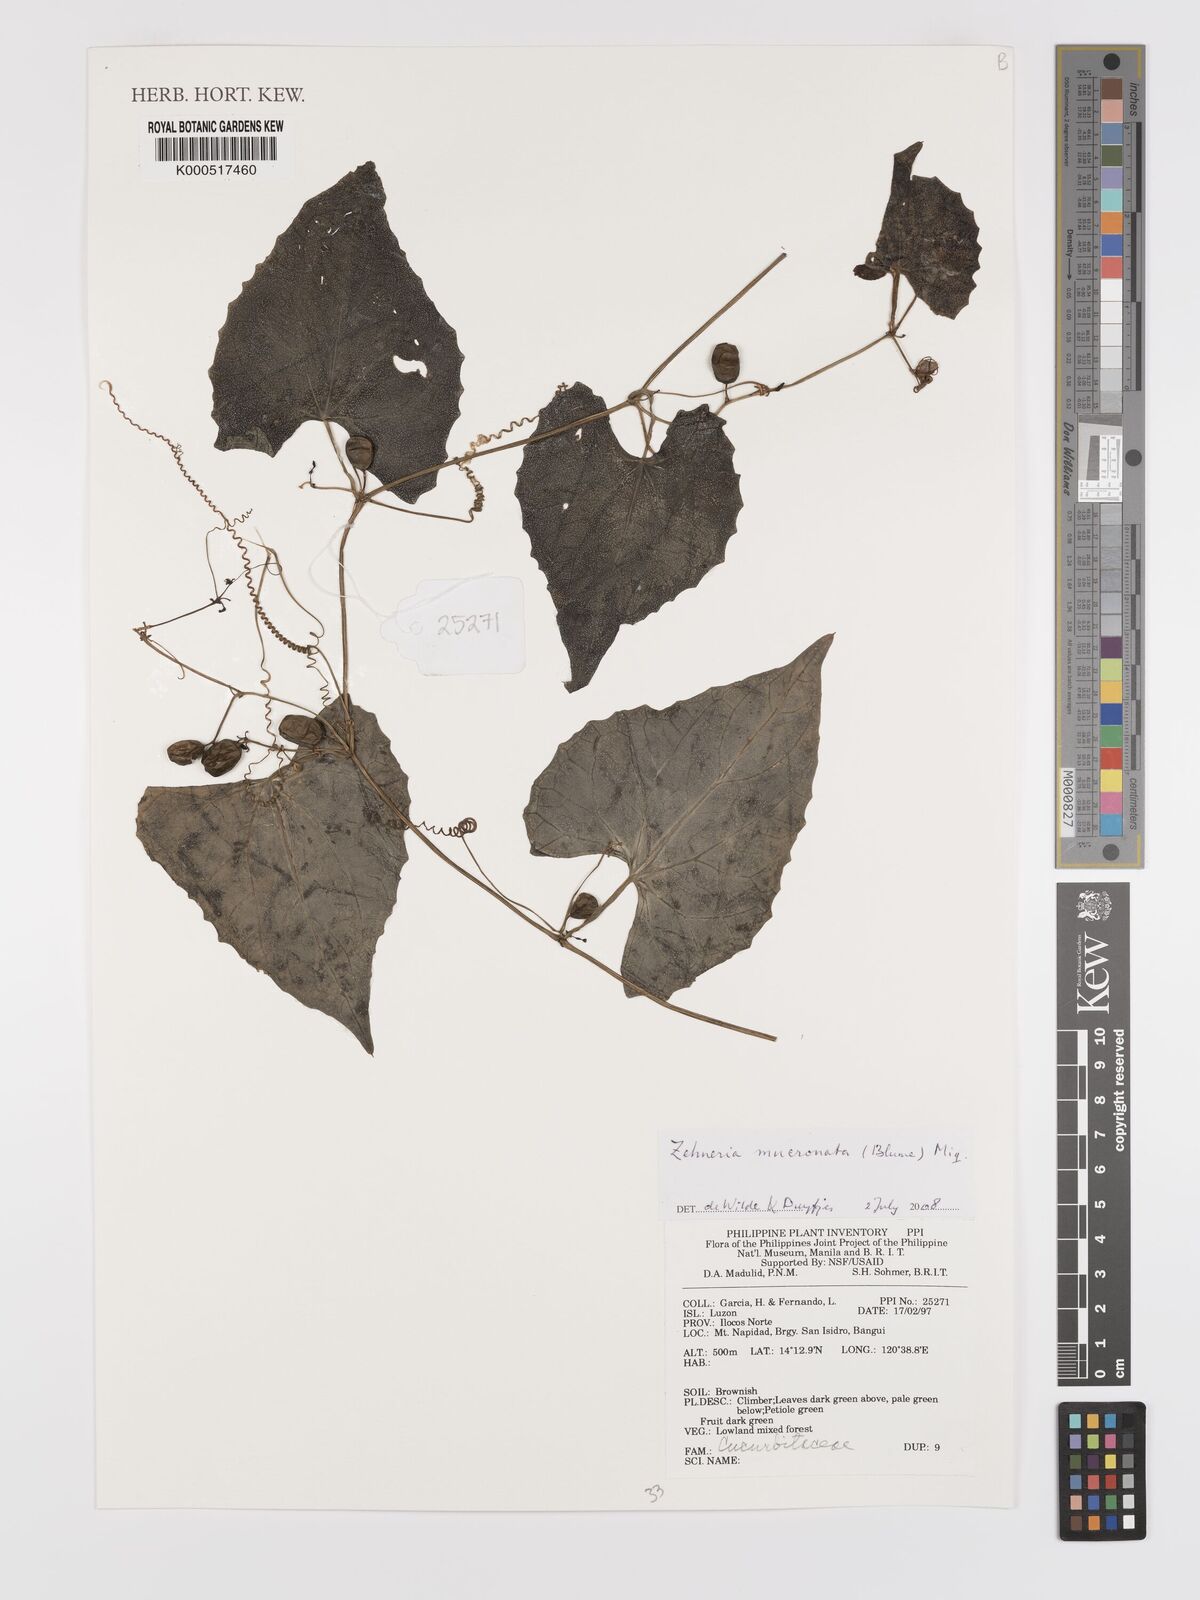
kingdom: Plantae
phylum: Tracheophyta
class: Magnoliopsida
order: Cucurbitales
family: Cucurbitaceae
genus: Zehneria
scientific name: Zehneria mucronata
